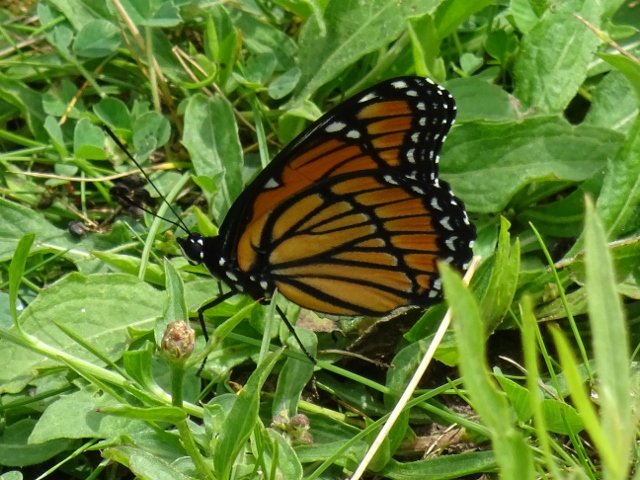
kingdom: Animalia
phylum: Arthropoda
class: Insecta
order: Lepidoptera
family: Nymphalidae
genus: Limenitis
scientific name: Limenitis archippus
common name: Viceroy
